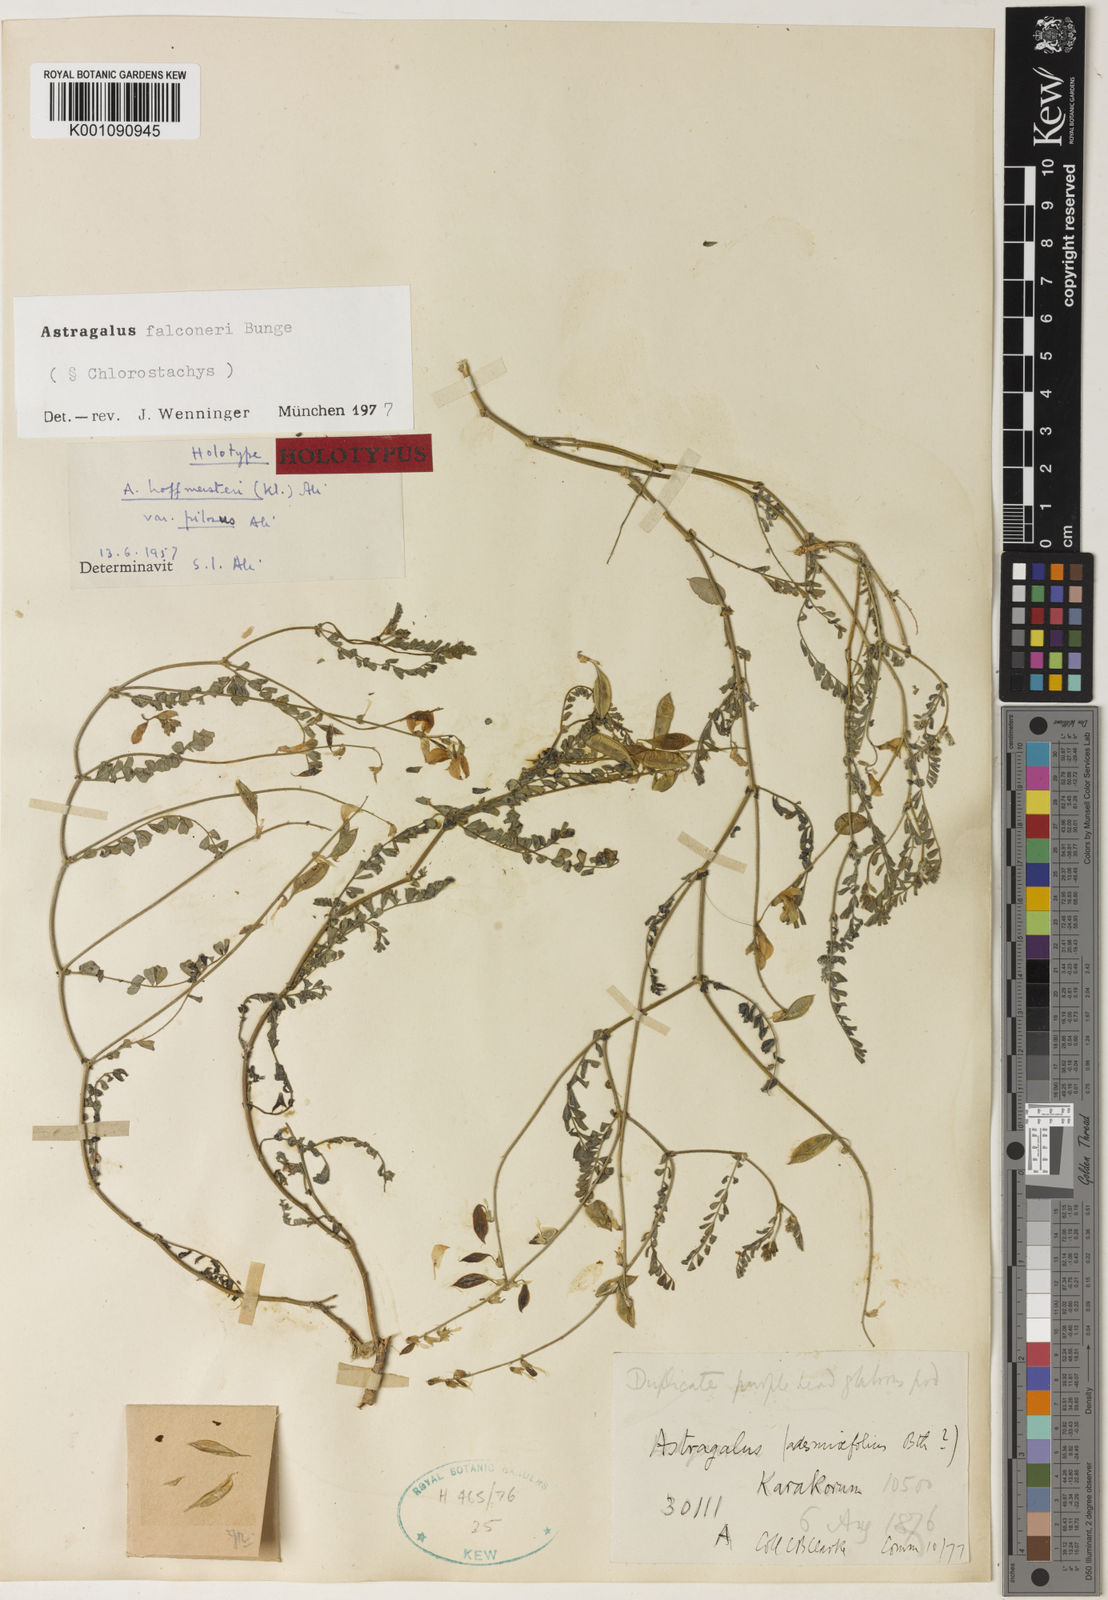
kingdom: Plantae
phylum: Tracheophyta
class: Magnoliopsida
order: Fabales
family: Fabaceae
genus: Astragalus
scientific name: Astragalus
